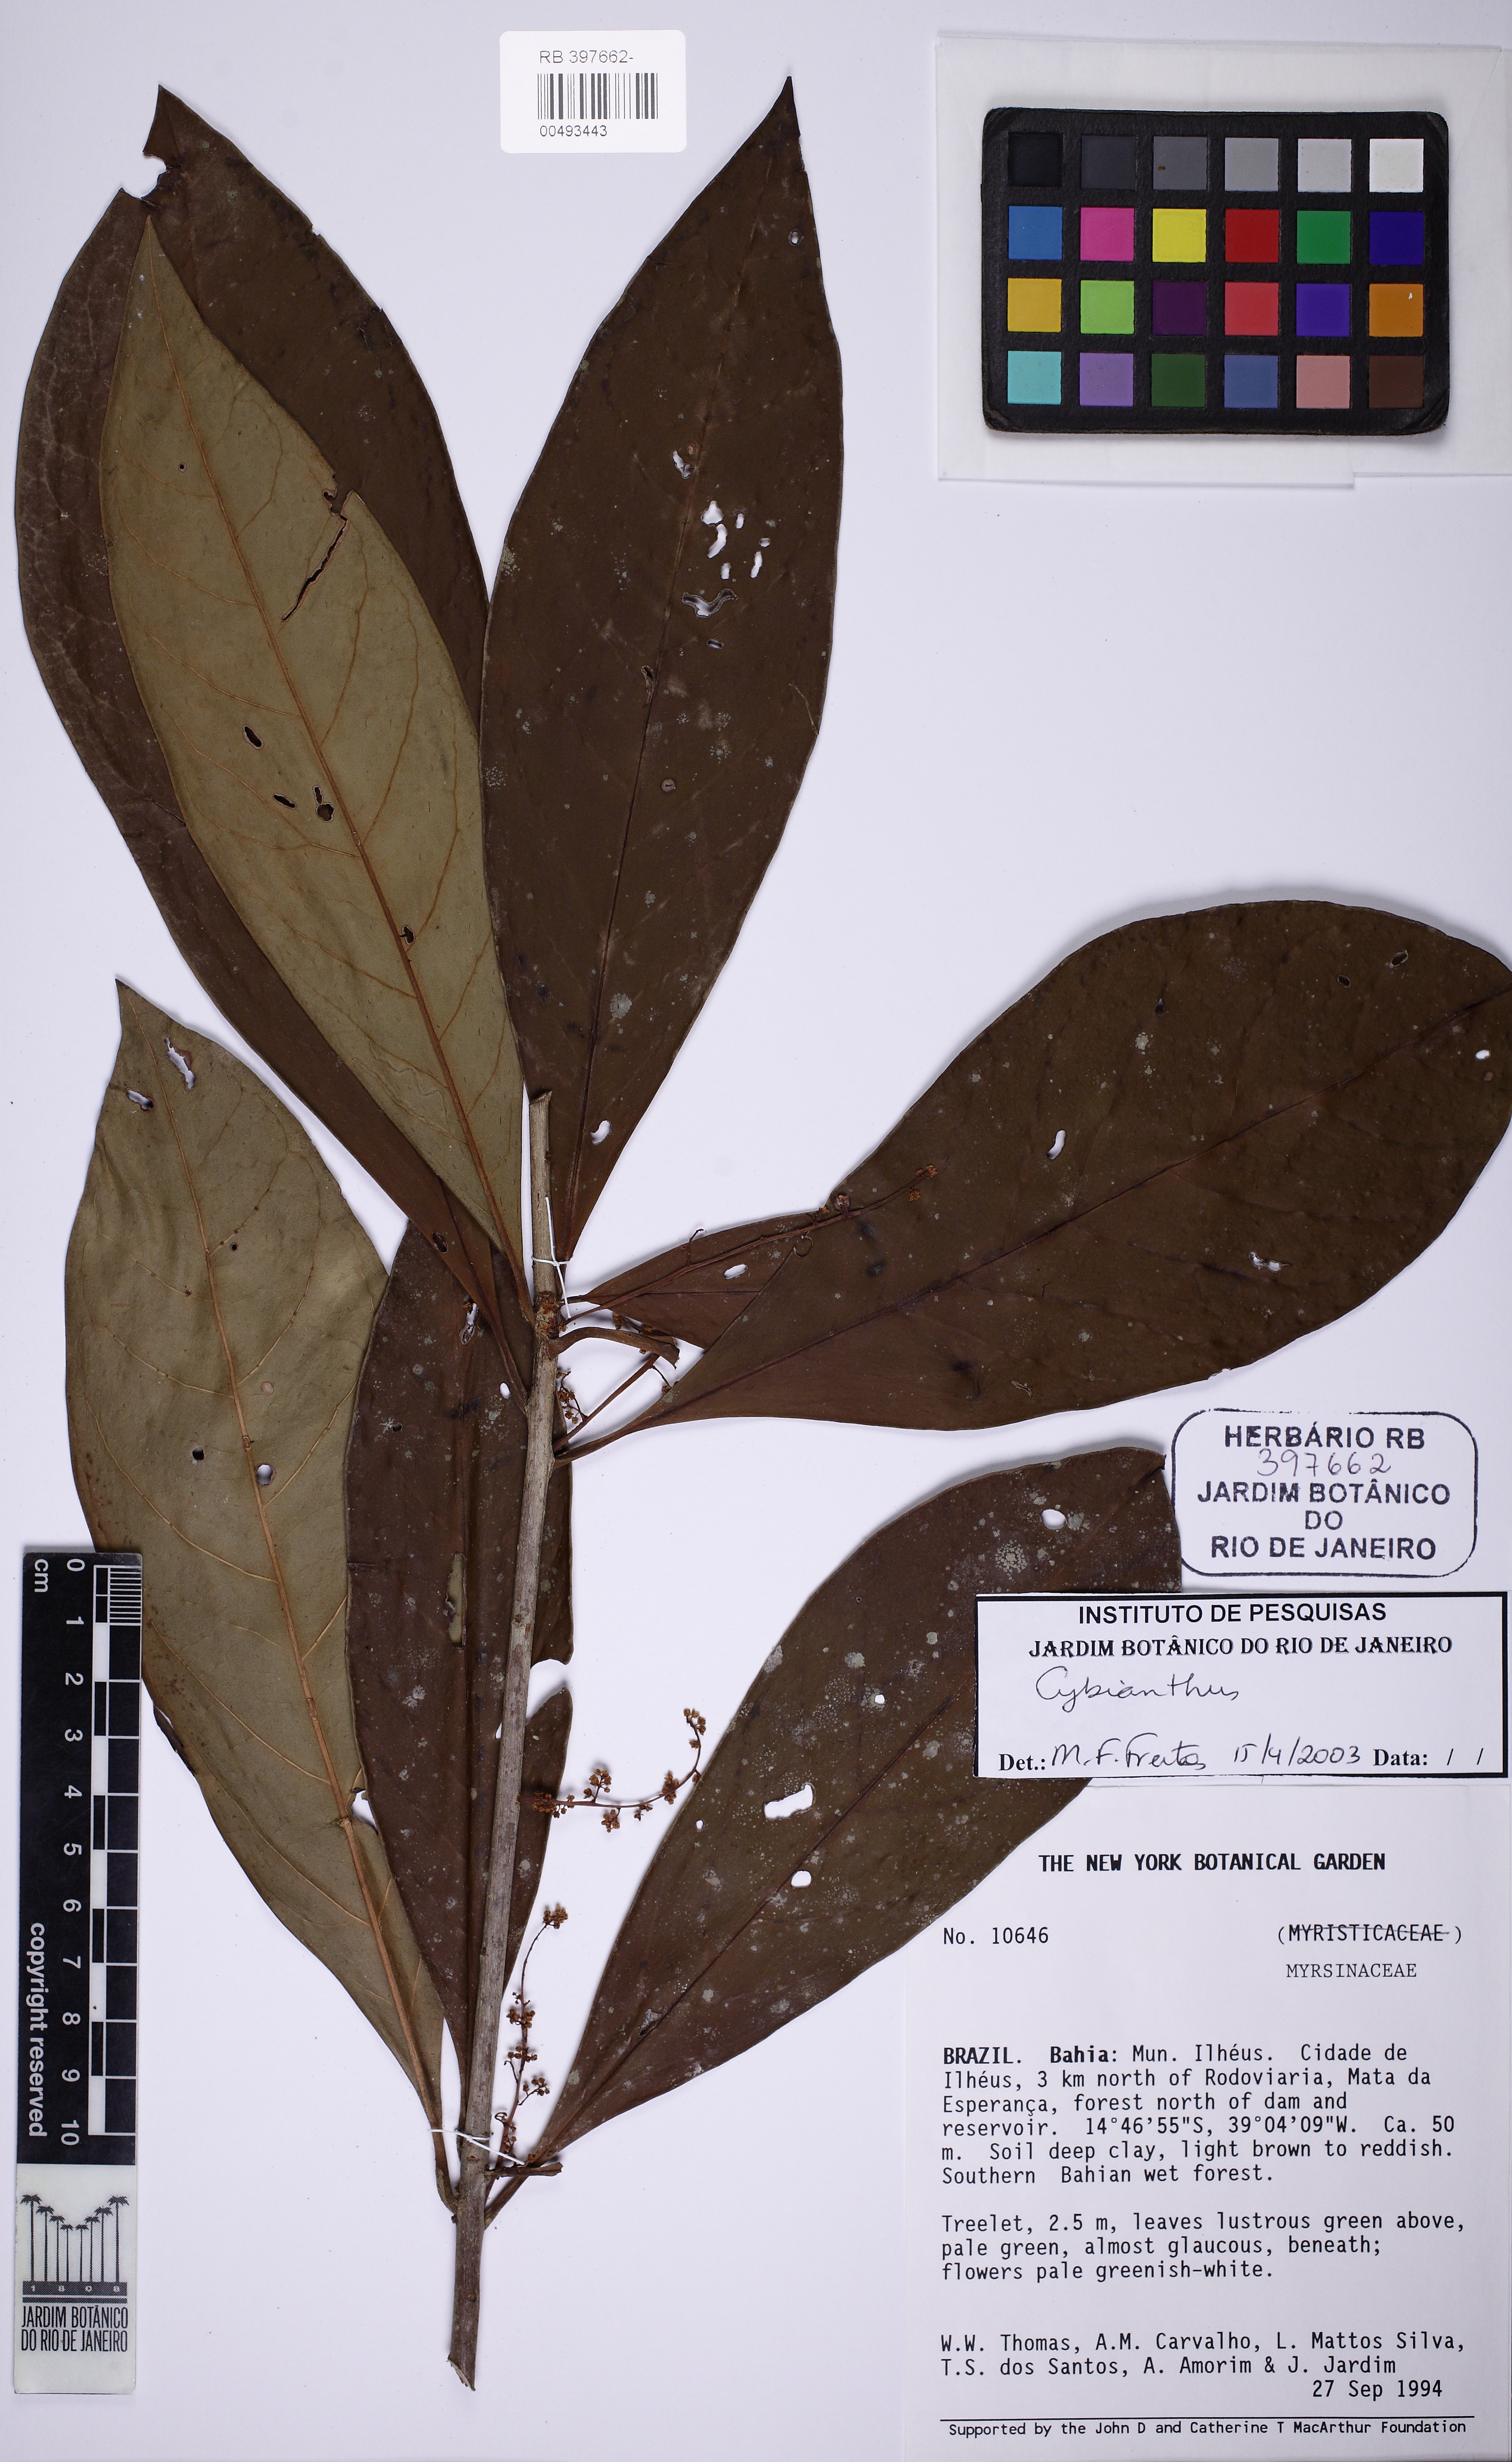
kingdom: Plantae
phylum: Tracheophyta
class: Magnoliopsida
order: Ericales
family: Primulaceae
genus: Cybianthus
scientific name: Cybianthus
